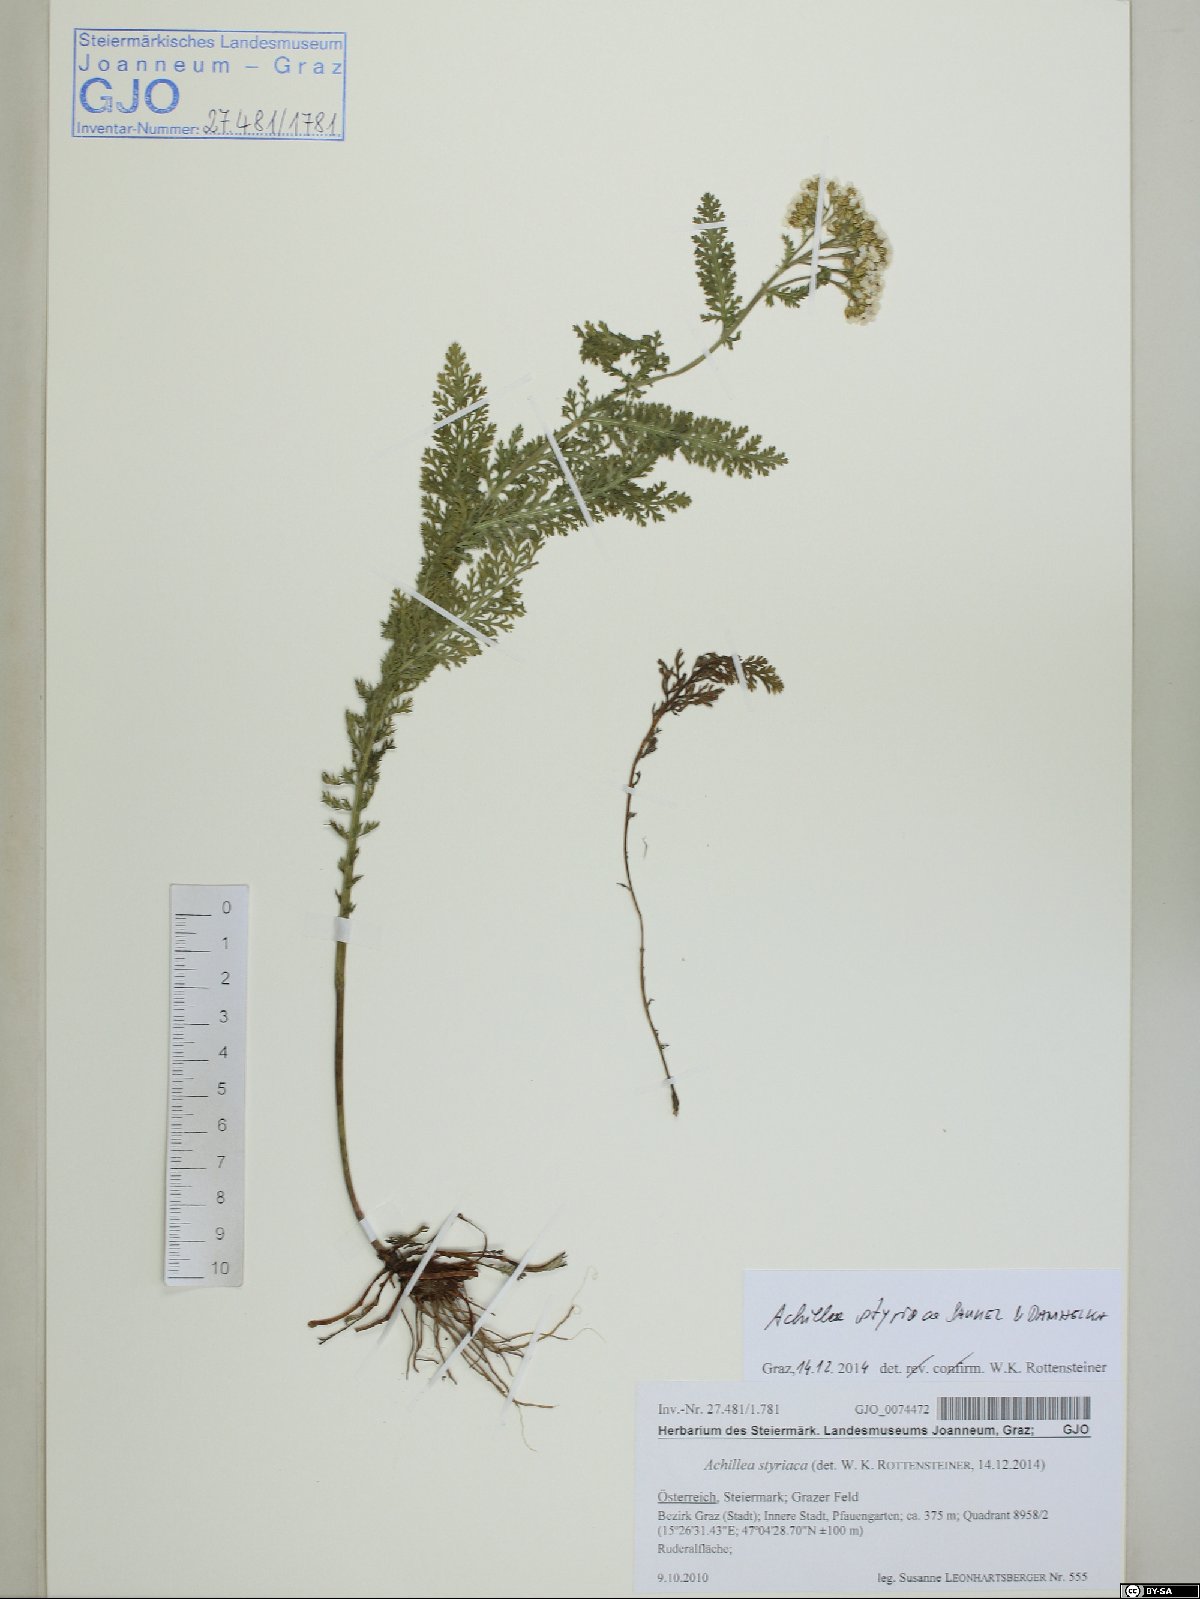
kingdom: Plantae
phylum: Tracheophyta
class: Magnoliopsida
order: Asterales
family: Asteraceae
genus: Achillea
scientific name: Achillea styriaca
